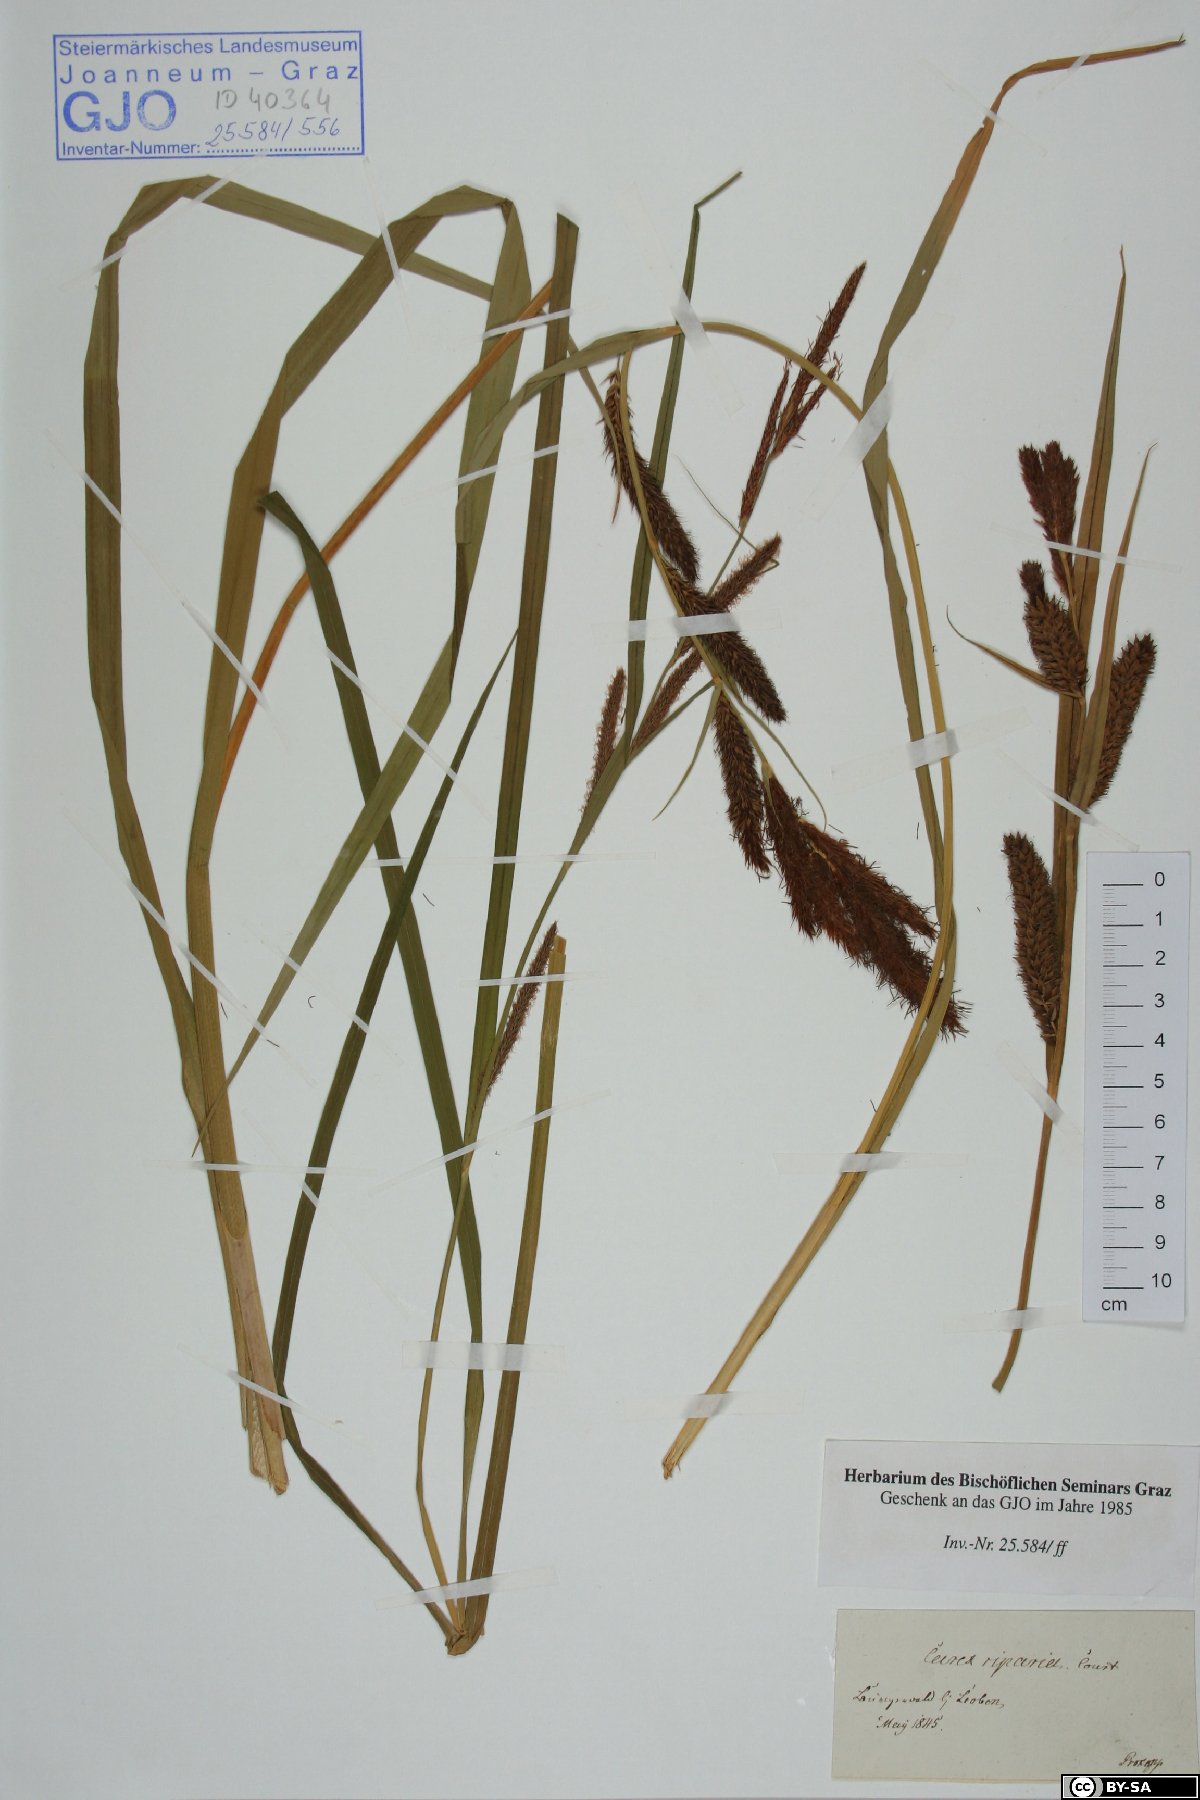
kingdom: Plantae
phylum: Tracheophyta
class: Liliopsida
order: Poales
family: Cyperaceae
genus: Carex
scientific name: Carex riparia
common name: Greater pond-sedge
